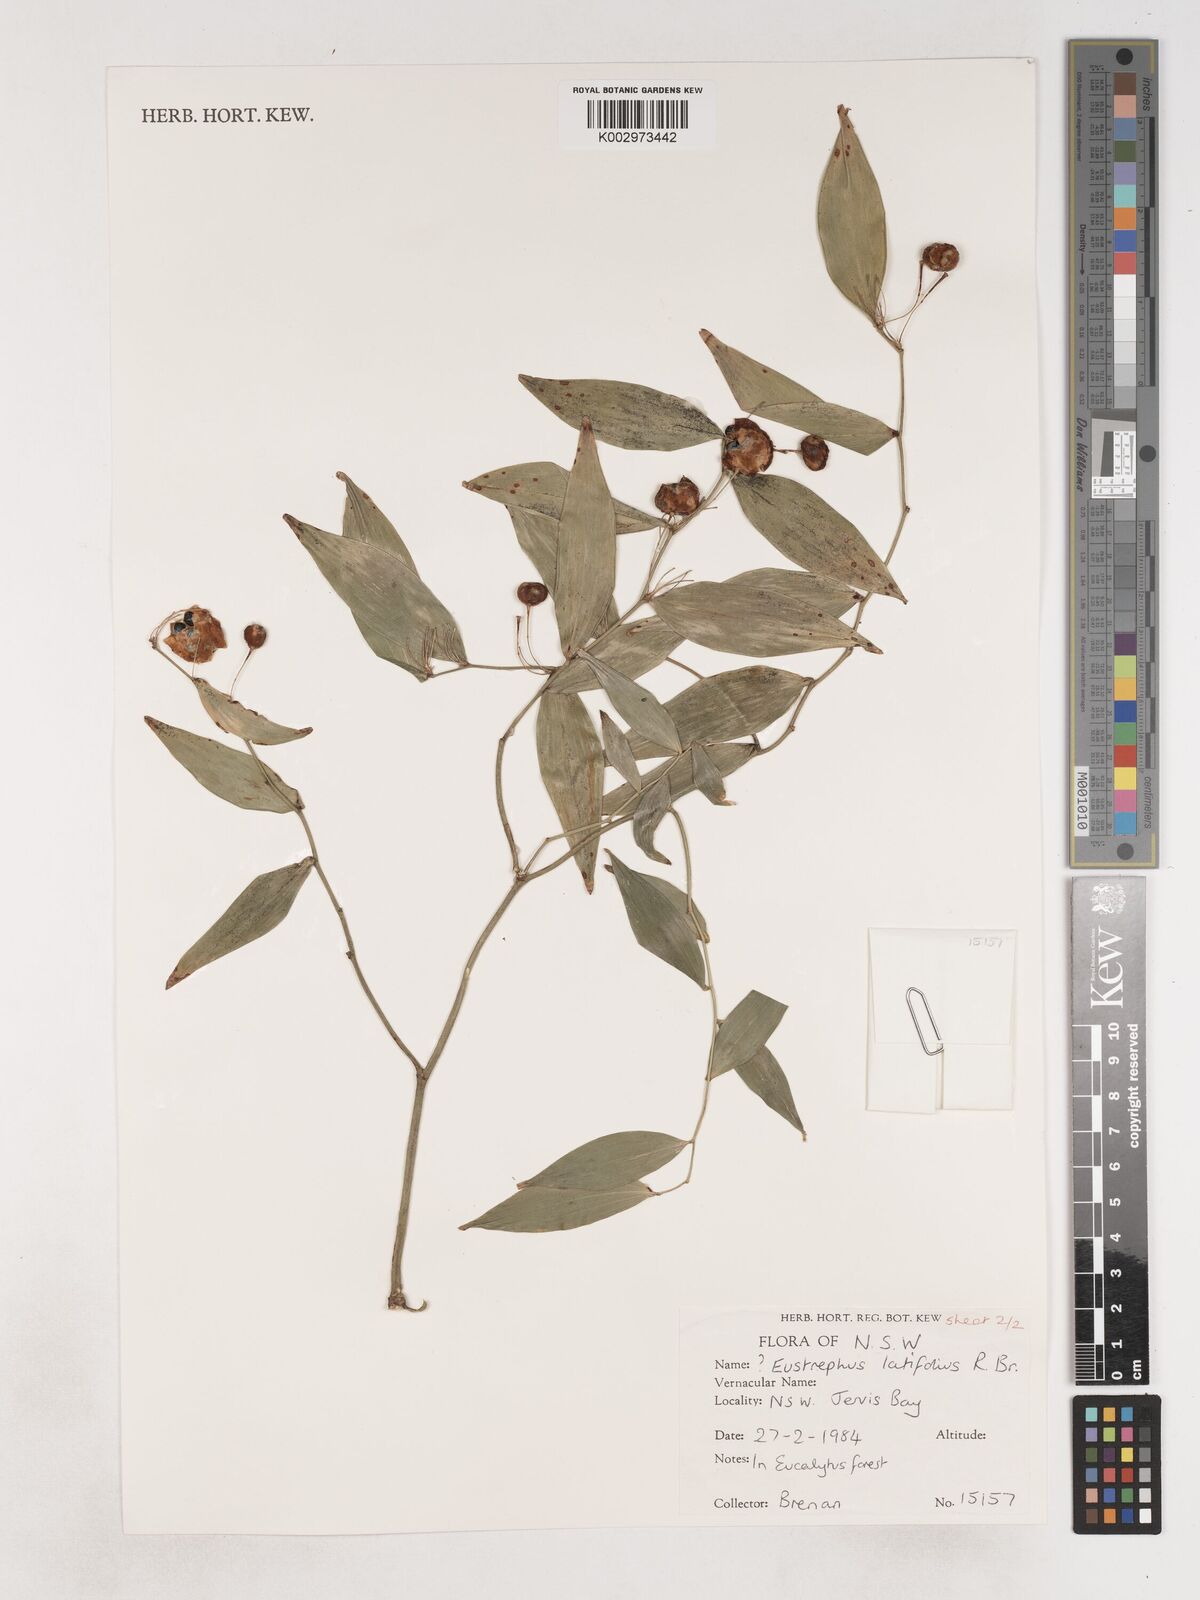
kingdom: Plantae
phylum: Tracheophyta
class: Liliopsida
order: Asparagales
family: Asparagaceae
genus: Eustrephus
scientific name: Eustrephus latifolius
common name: Orangevine
